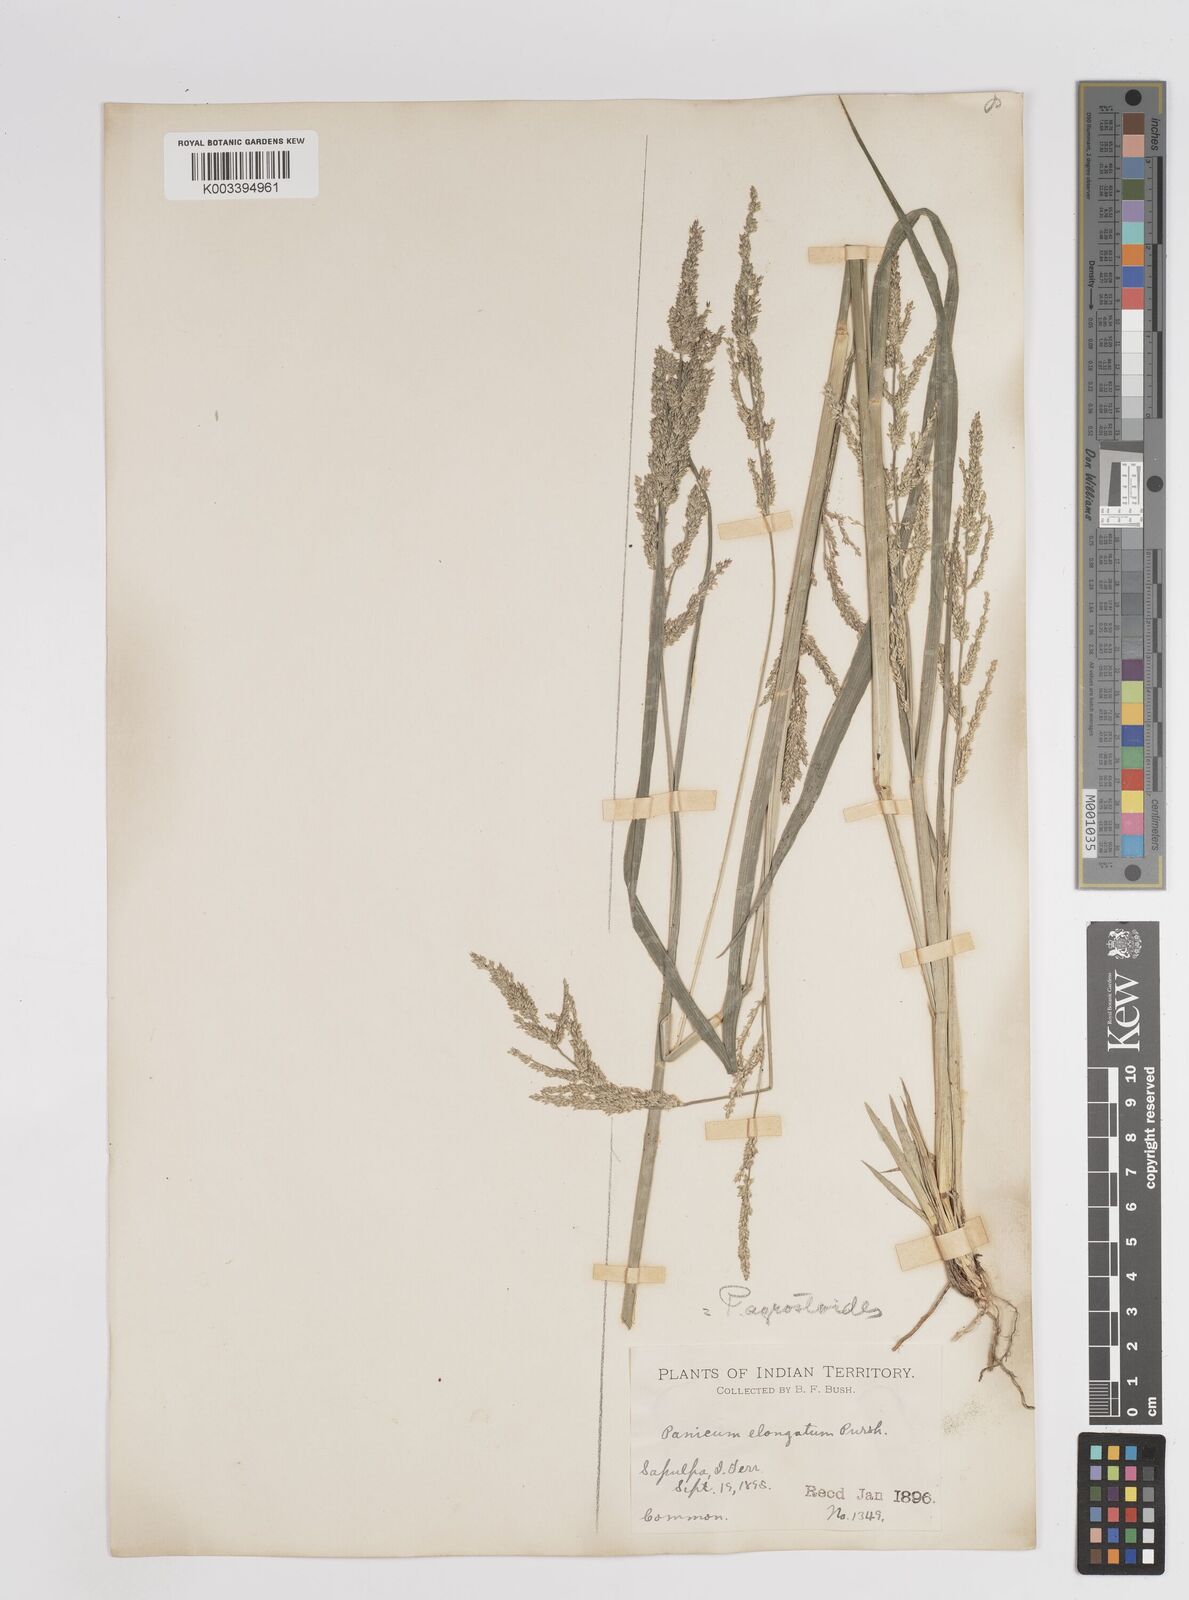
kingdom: Plantae
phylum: Tracheophyta
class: Liliopsida
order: Poales
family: Poaceae
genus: Steinchisma
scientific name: Steinchisma laxum
